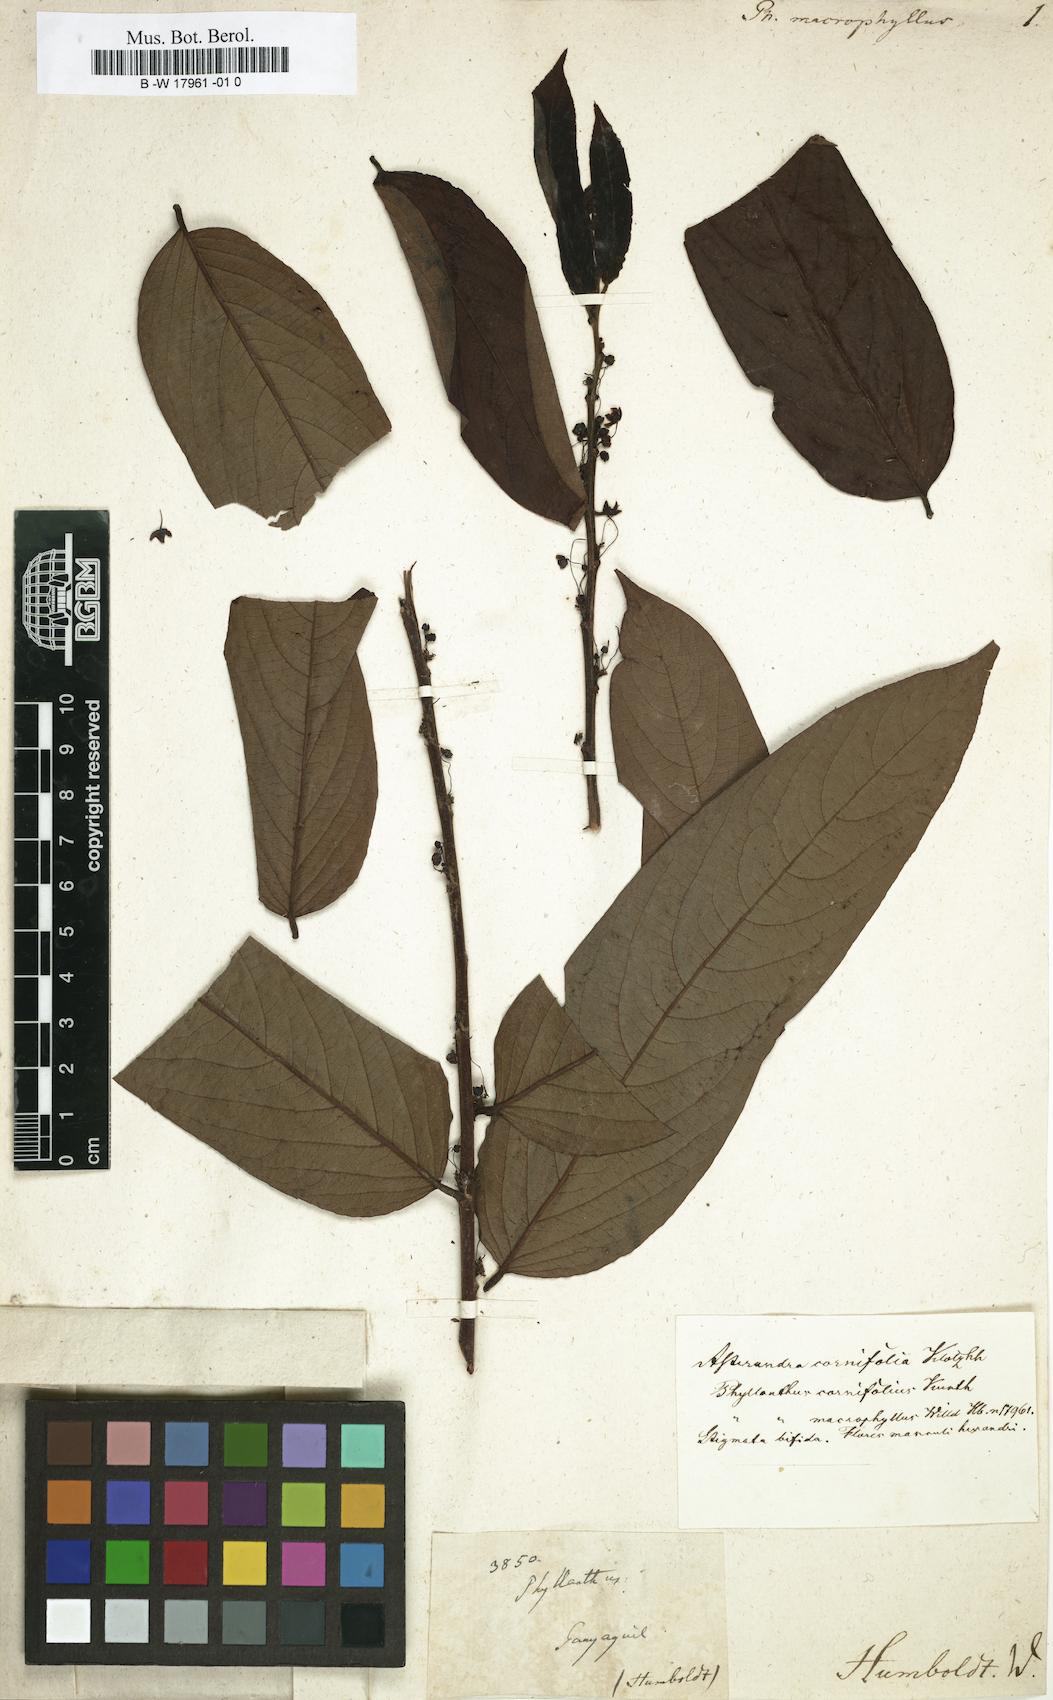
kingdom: Plantae
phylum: Tracheophyta
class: Magnoliopsida
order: Malpighiales
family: Phyllanthaceae
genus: Glochidion
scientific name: Glochidion macphersonii
